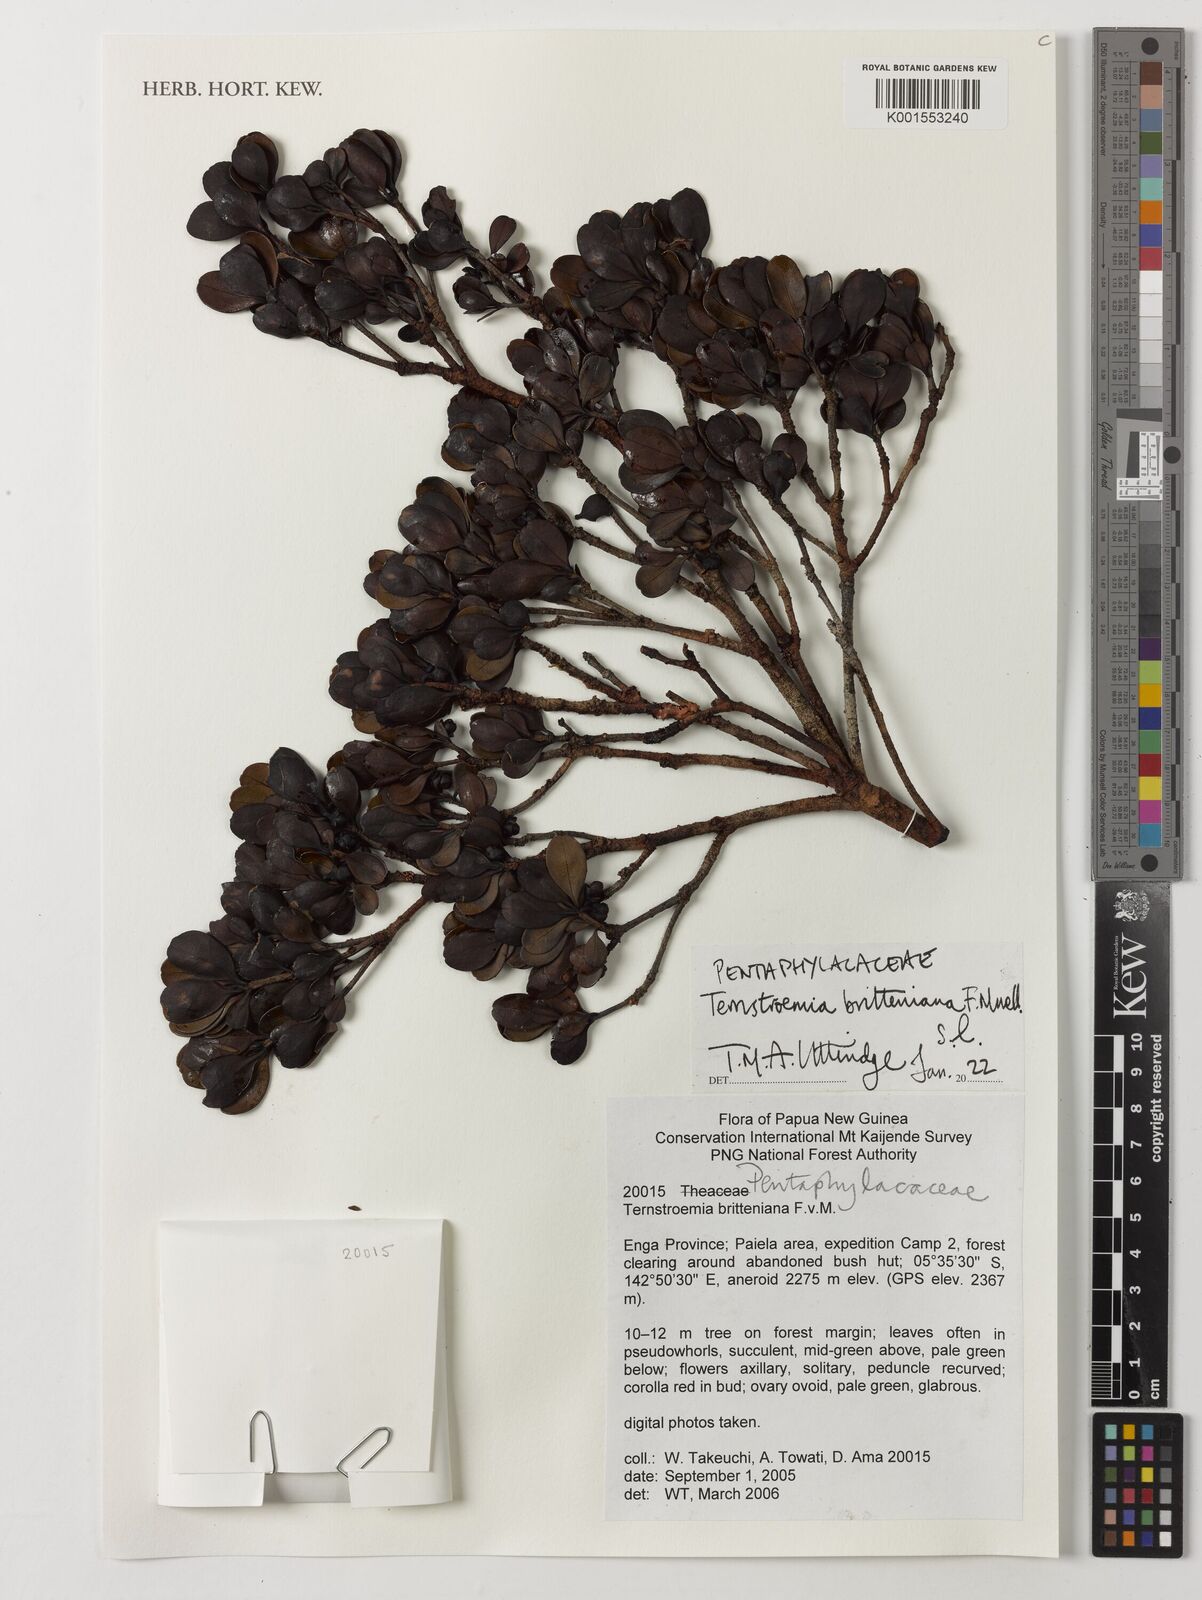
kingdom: Plantae
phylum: Tracheophyta
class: Magnoliopsida
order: Ericales
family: Pentaphylacaceae
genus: Ternstroemia
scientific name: Ternstroemia britteniana
